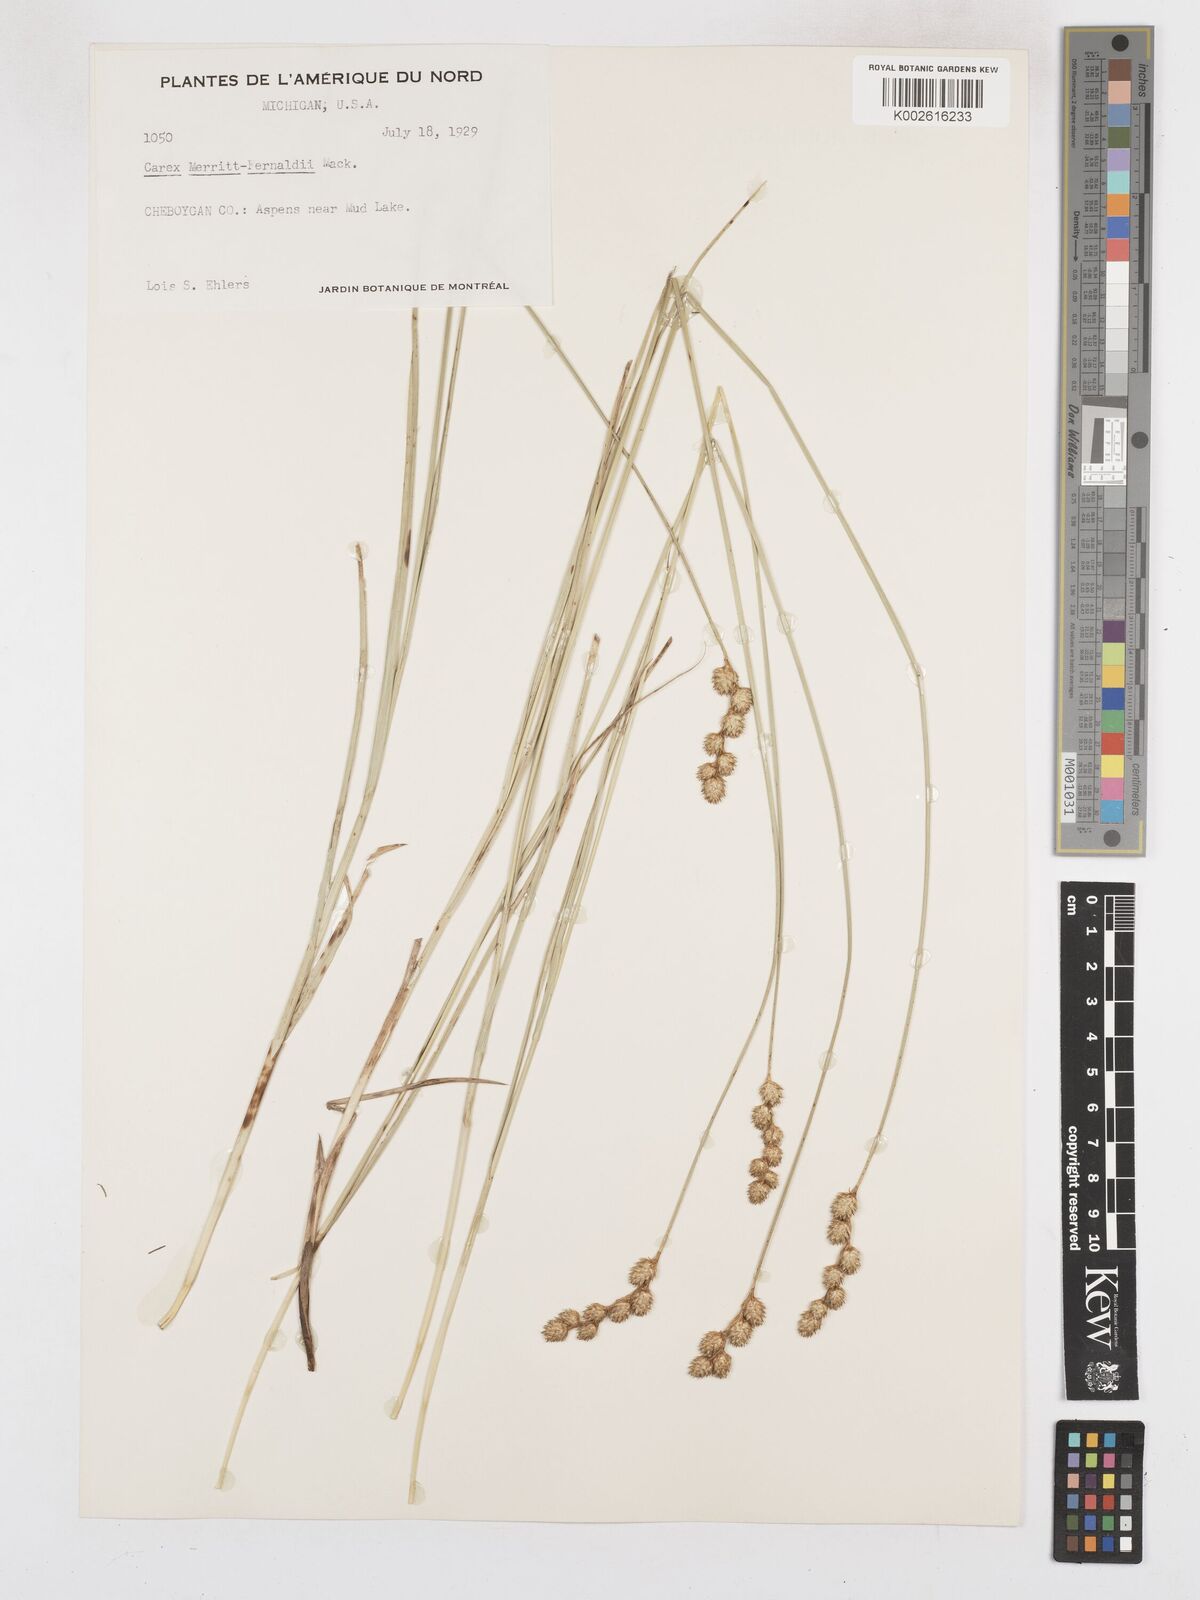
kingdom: Plantae
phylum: Tracheophyta
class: Liliopsida
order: Poales
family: Cyperaceae
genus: Carex
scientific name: Carex merritt-fernaldii
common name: Fernald's oval sedge
